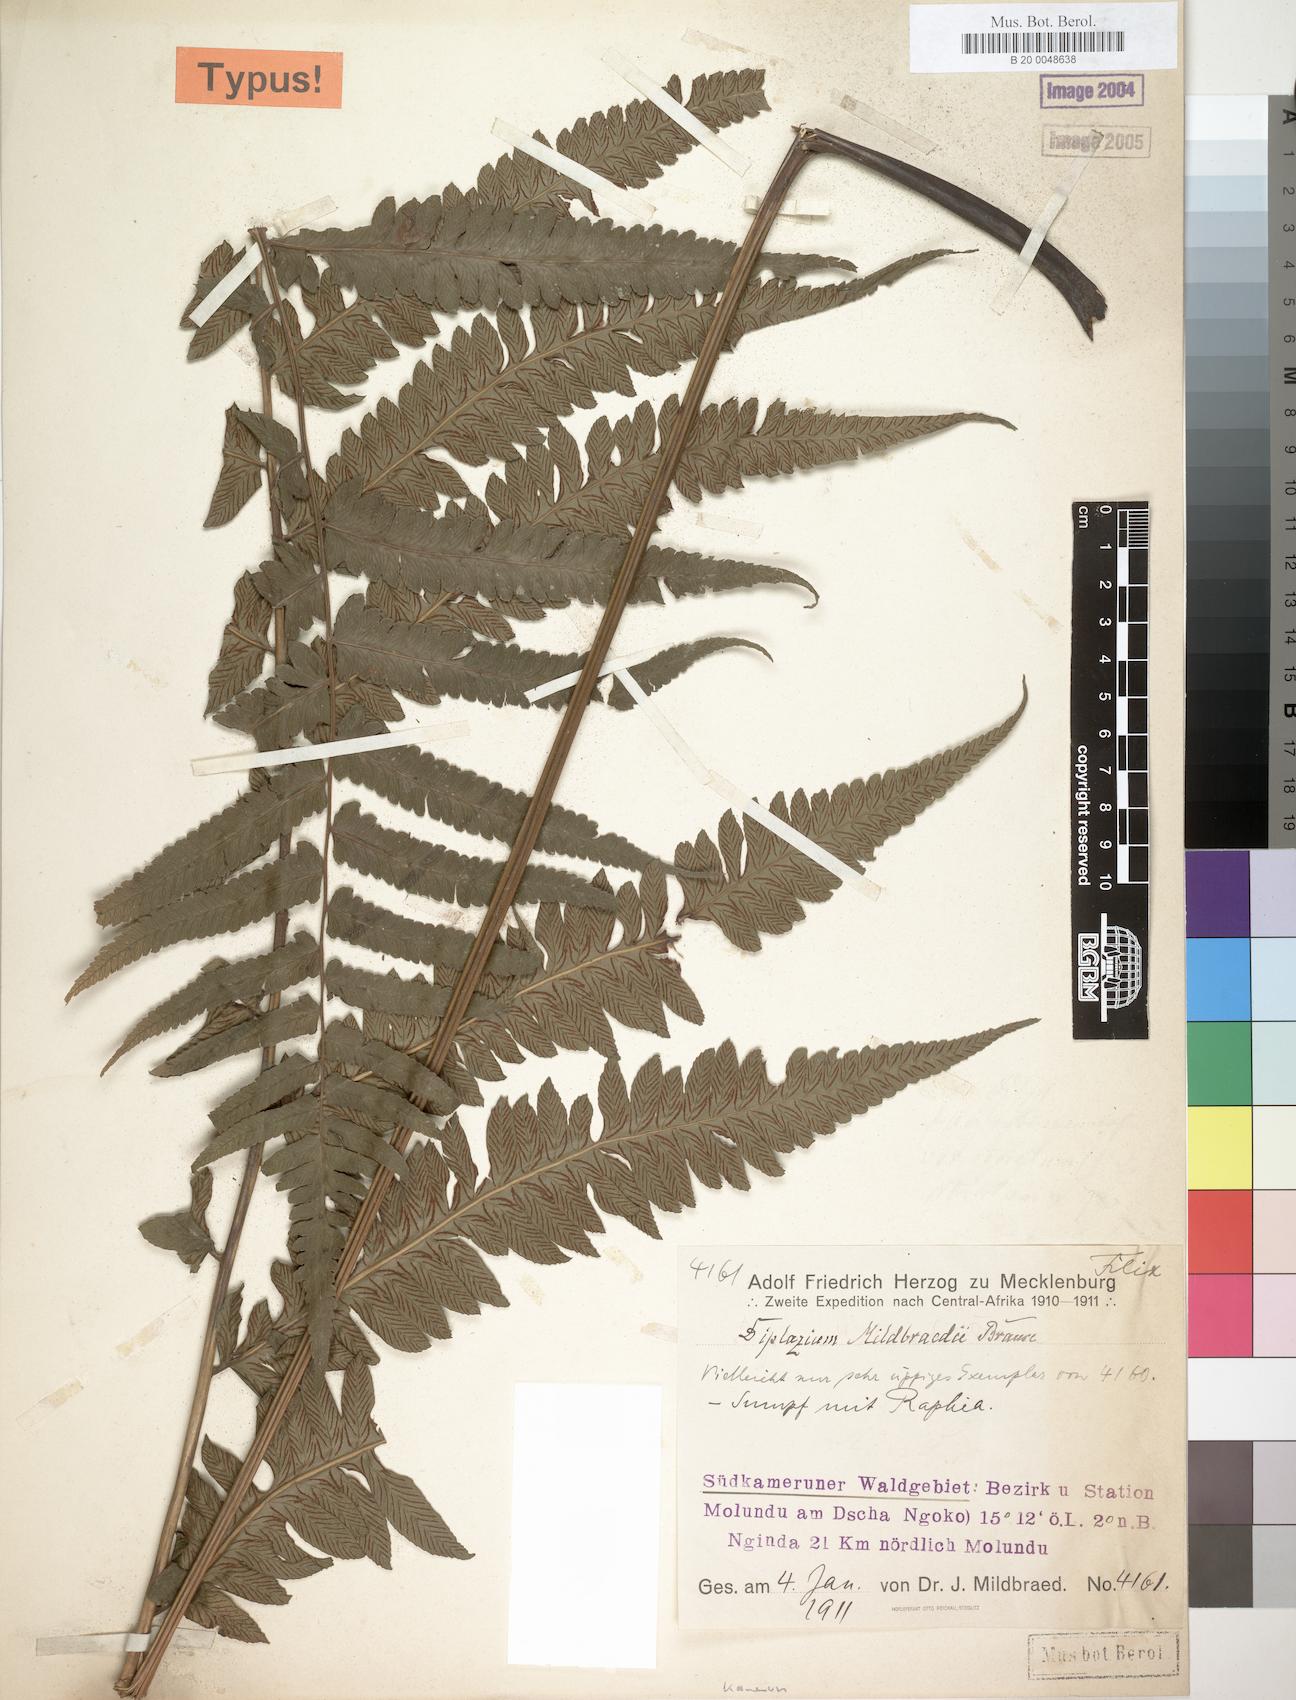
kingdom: Plantae
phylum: Tracheophyta
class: Polypodiopsida
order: Polypodiales
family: Athyriaceae
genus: Diplazium
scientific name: Diplazium welwitschii
